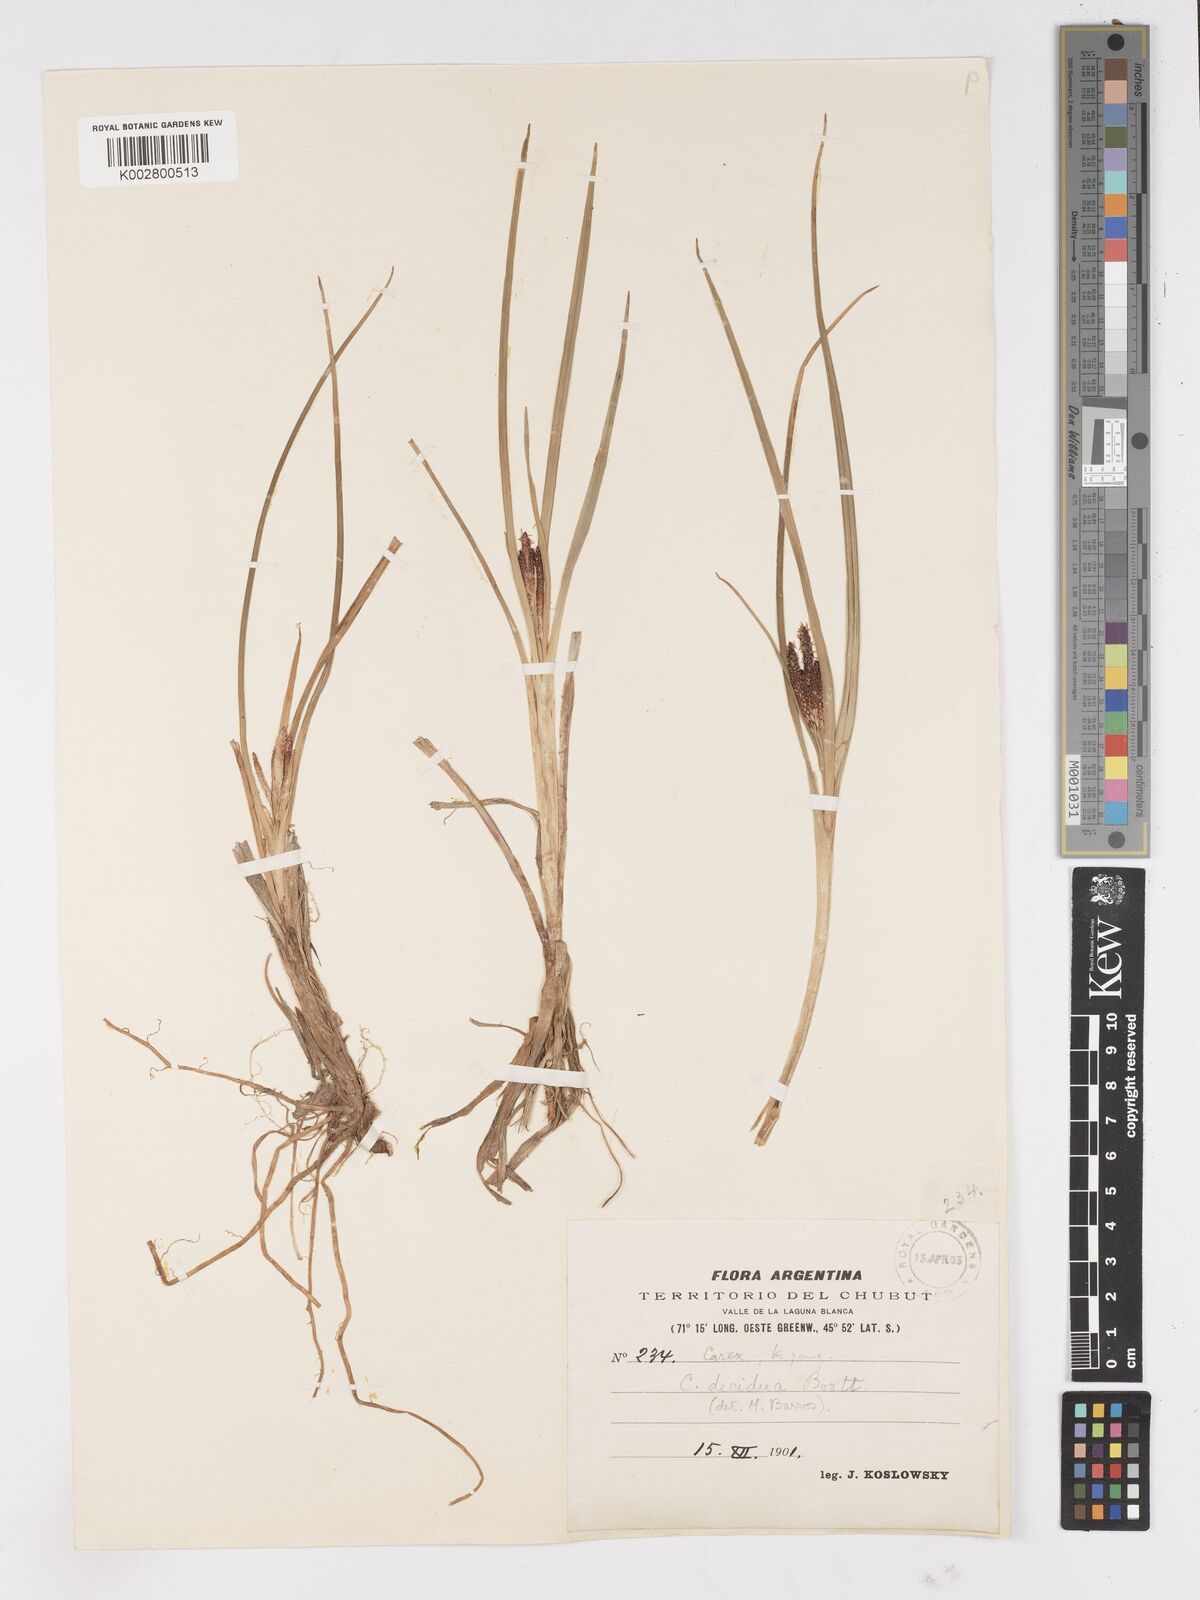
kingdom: Plantae
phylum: Tracheophyta
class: Liliopsida
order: Poales
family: Cyperaceae
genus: Carex
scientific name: Carex decidua
